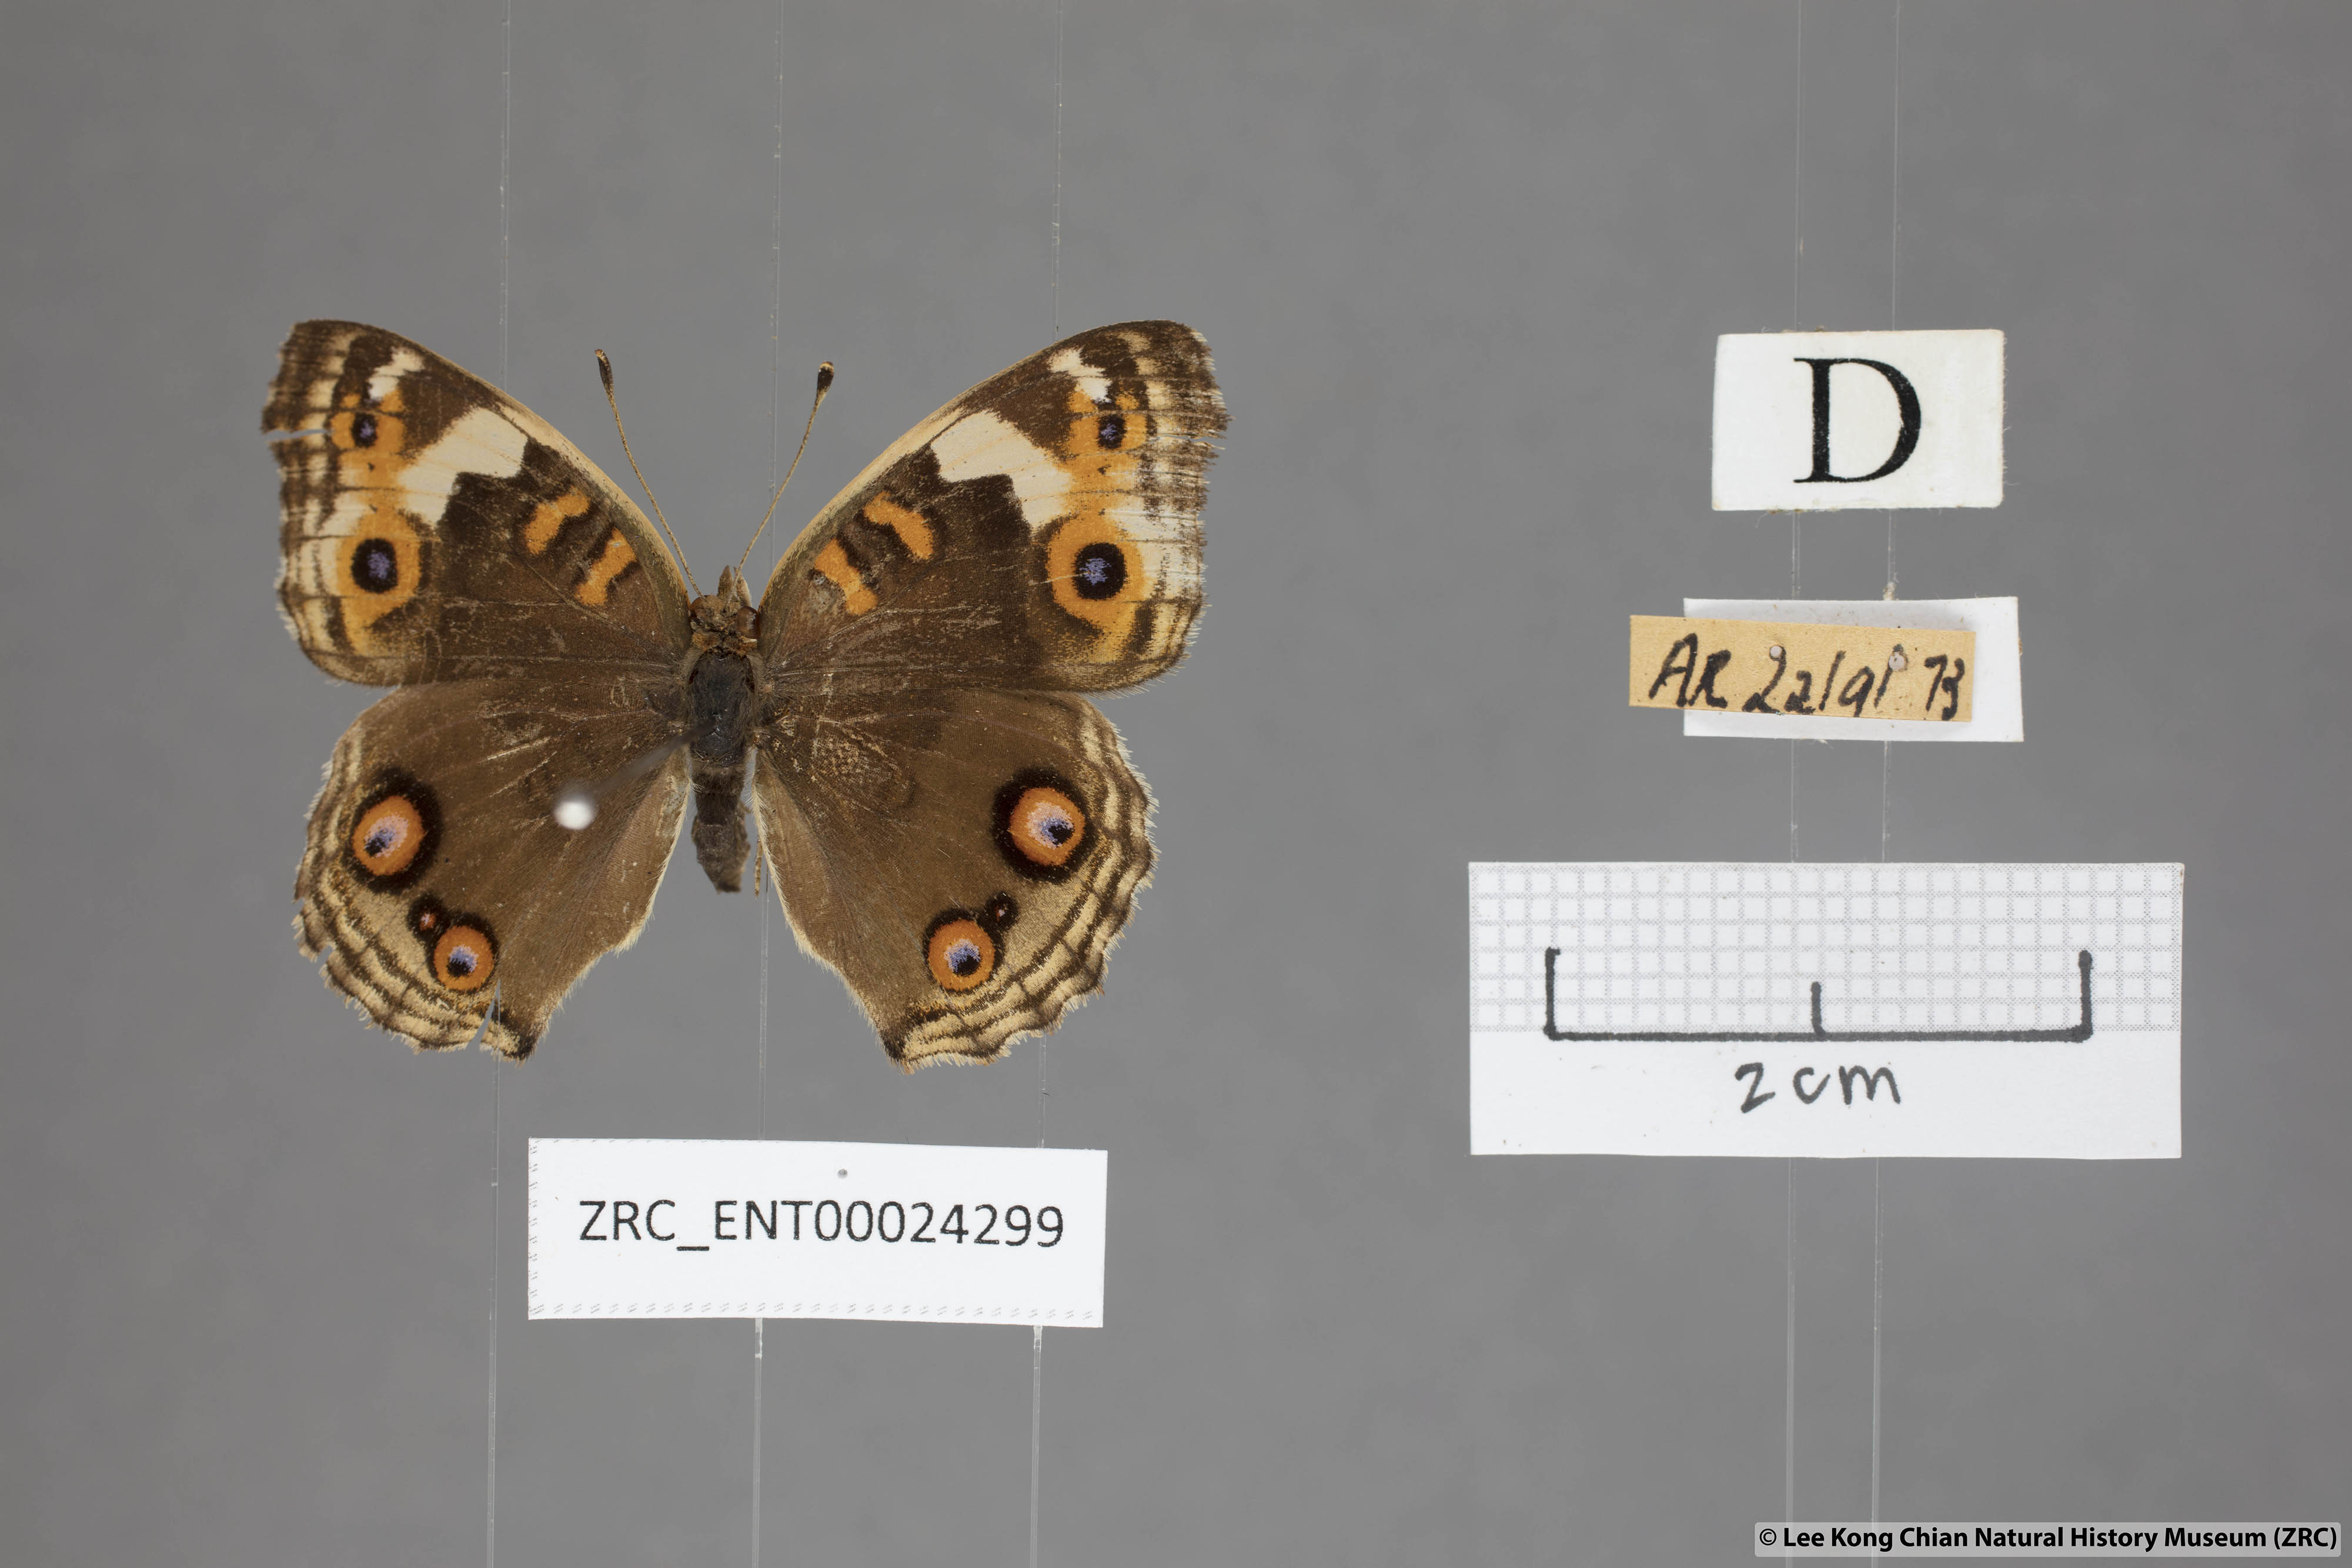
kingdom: Animalia
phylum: Arthropoda
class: Insecta
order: Lepidoptera
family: Nymphalidae
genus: Junonia
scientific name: Junonia orithya
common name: Blue pansy
